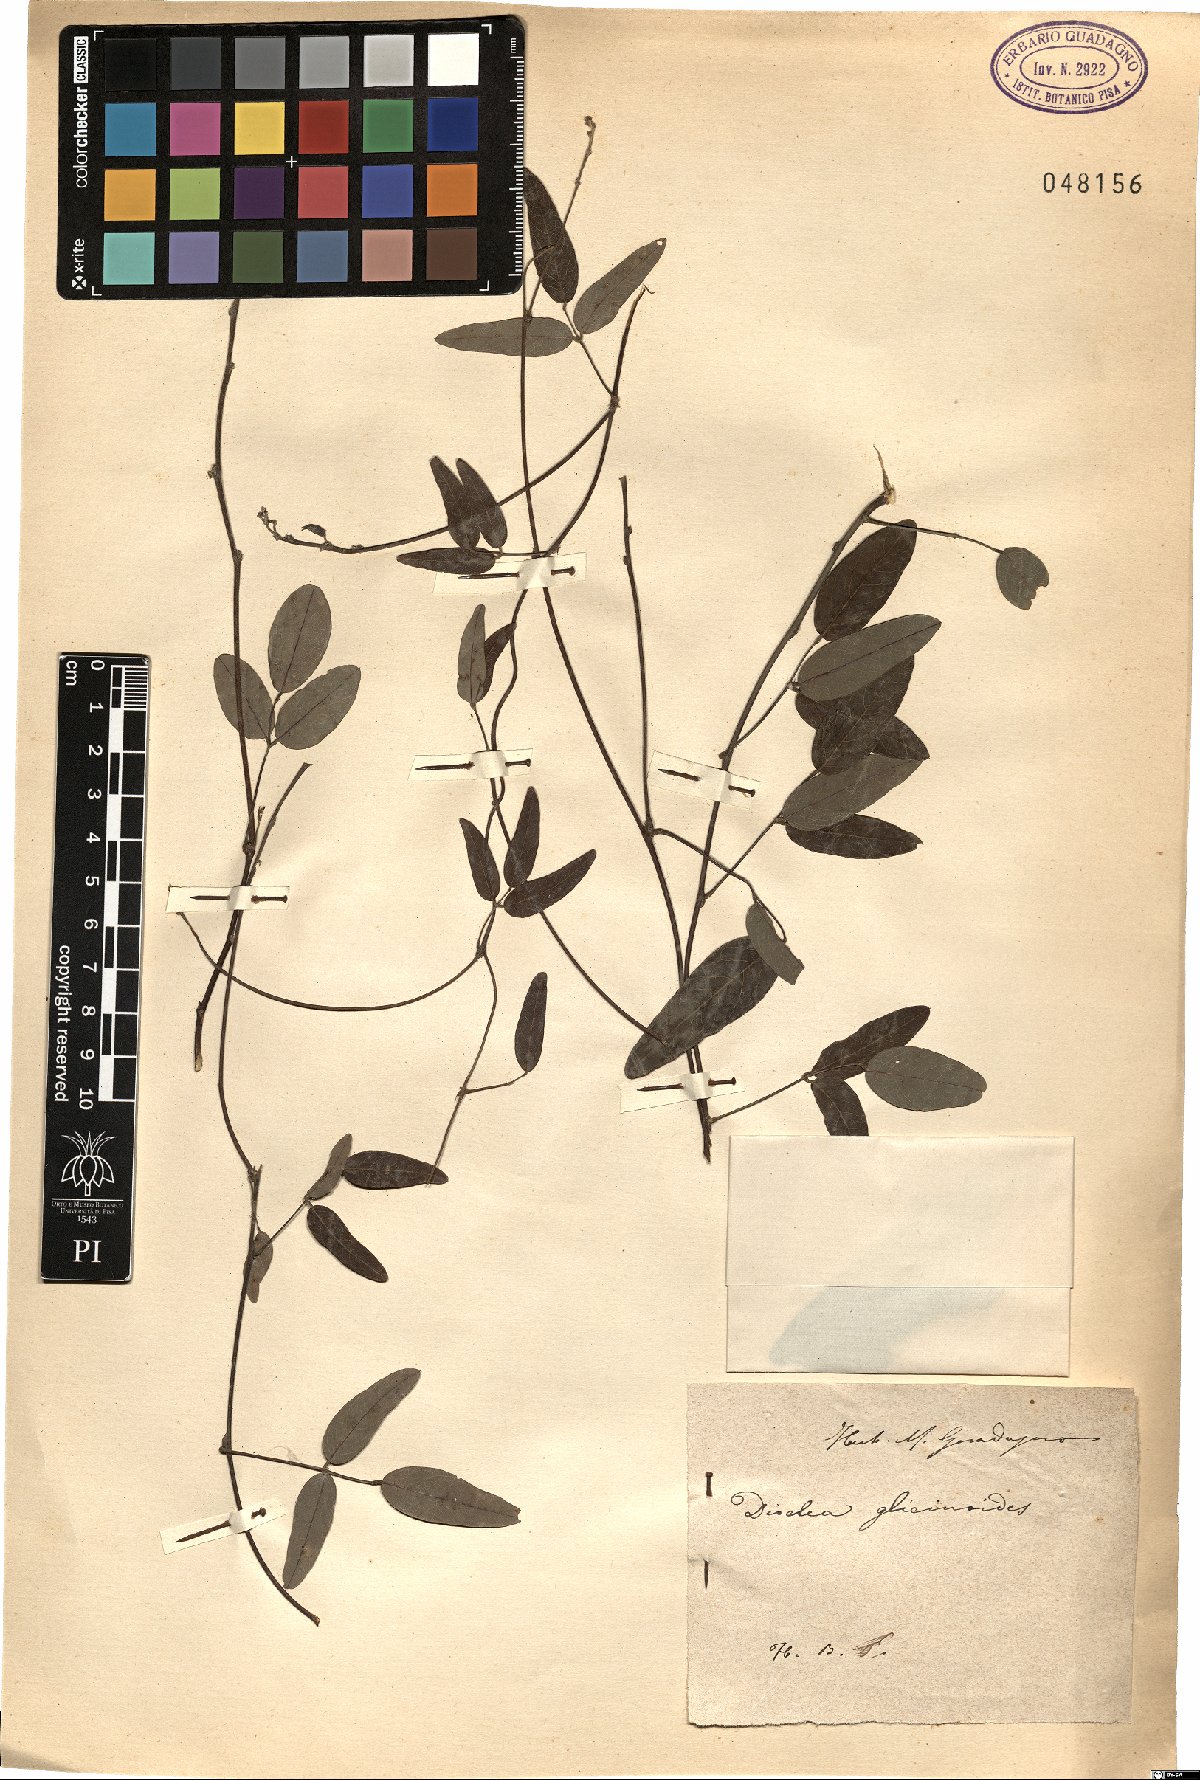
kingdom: Plantae
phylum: Tracheophyta
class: Magnoliopsida
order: Fabales
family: Fabaceae
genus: Camptosema
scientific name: Camptosema rubicundum
